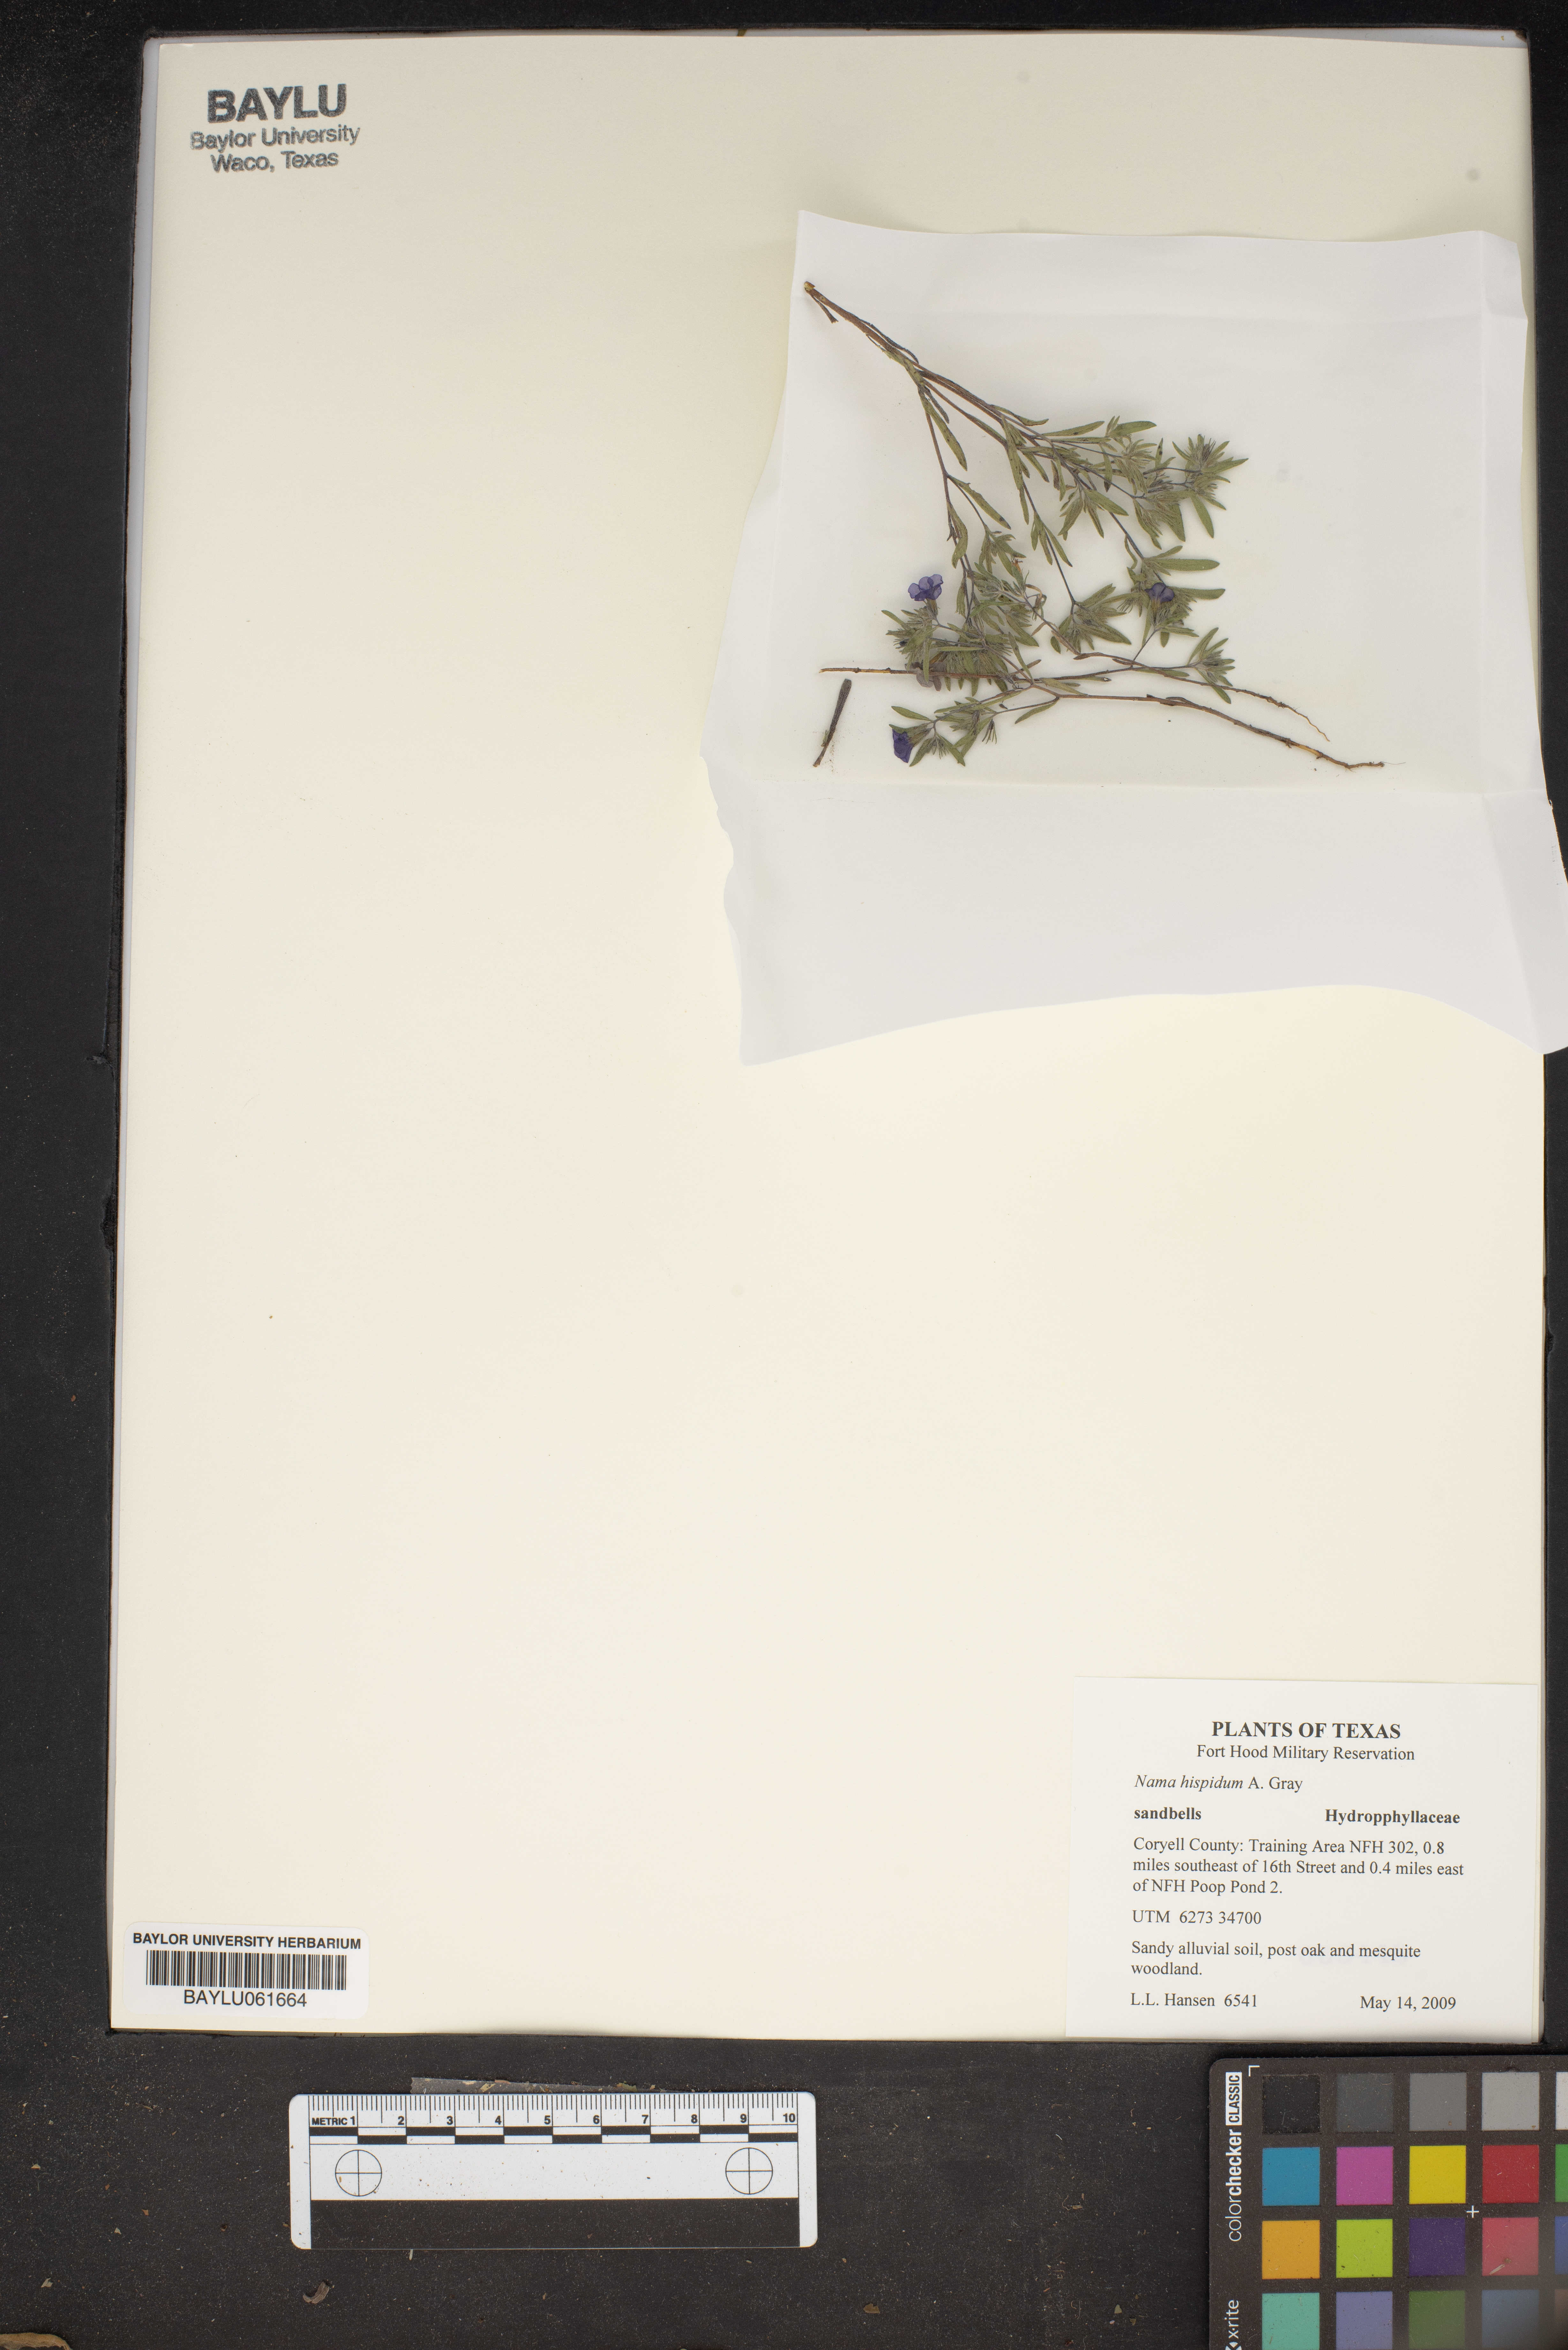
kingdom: Plantae
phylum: Tracheophyta
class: Magnoliopsida
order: Boraginales
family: Namaceae
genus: Nama
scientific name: Nama hispida
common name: Bristly nama
